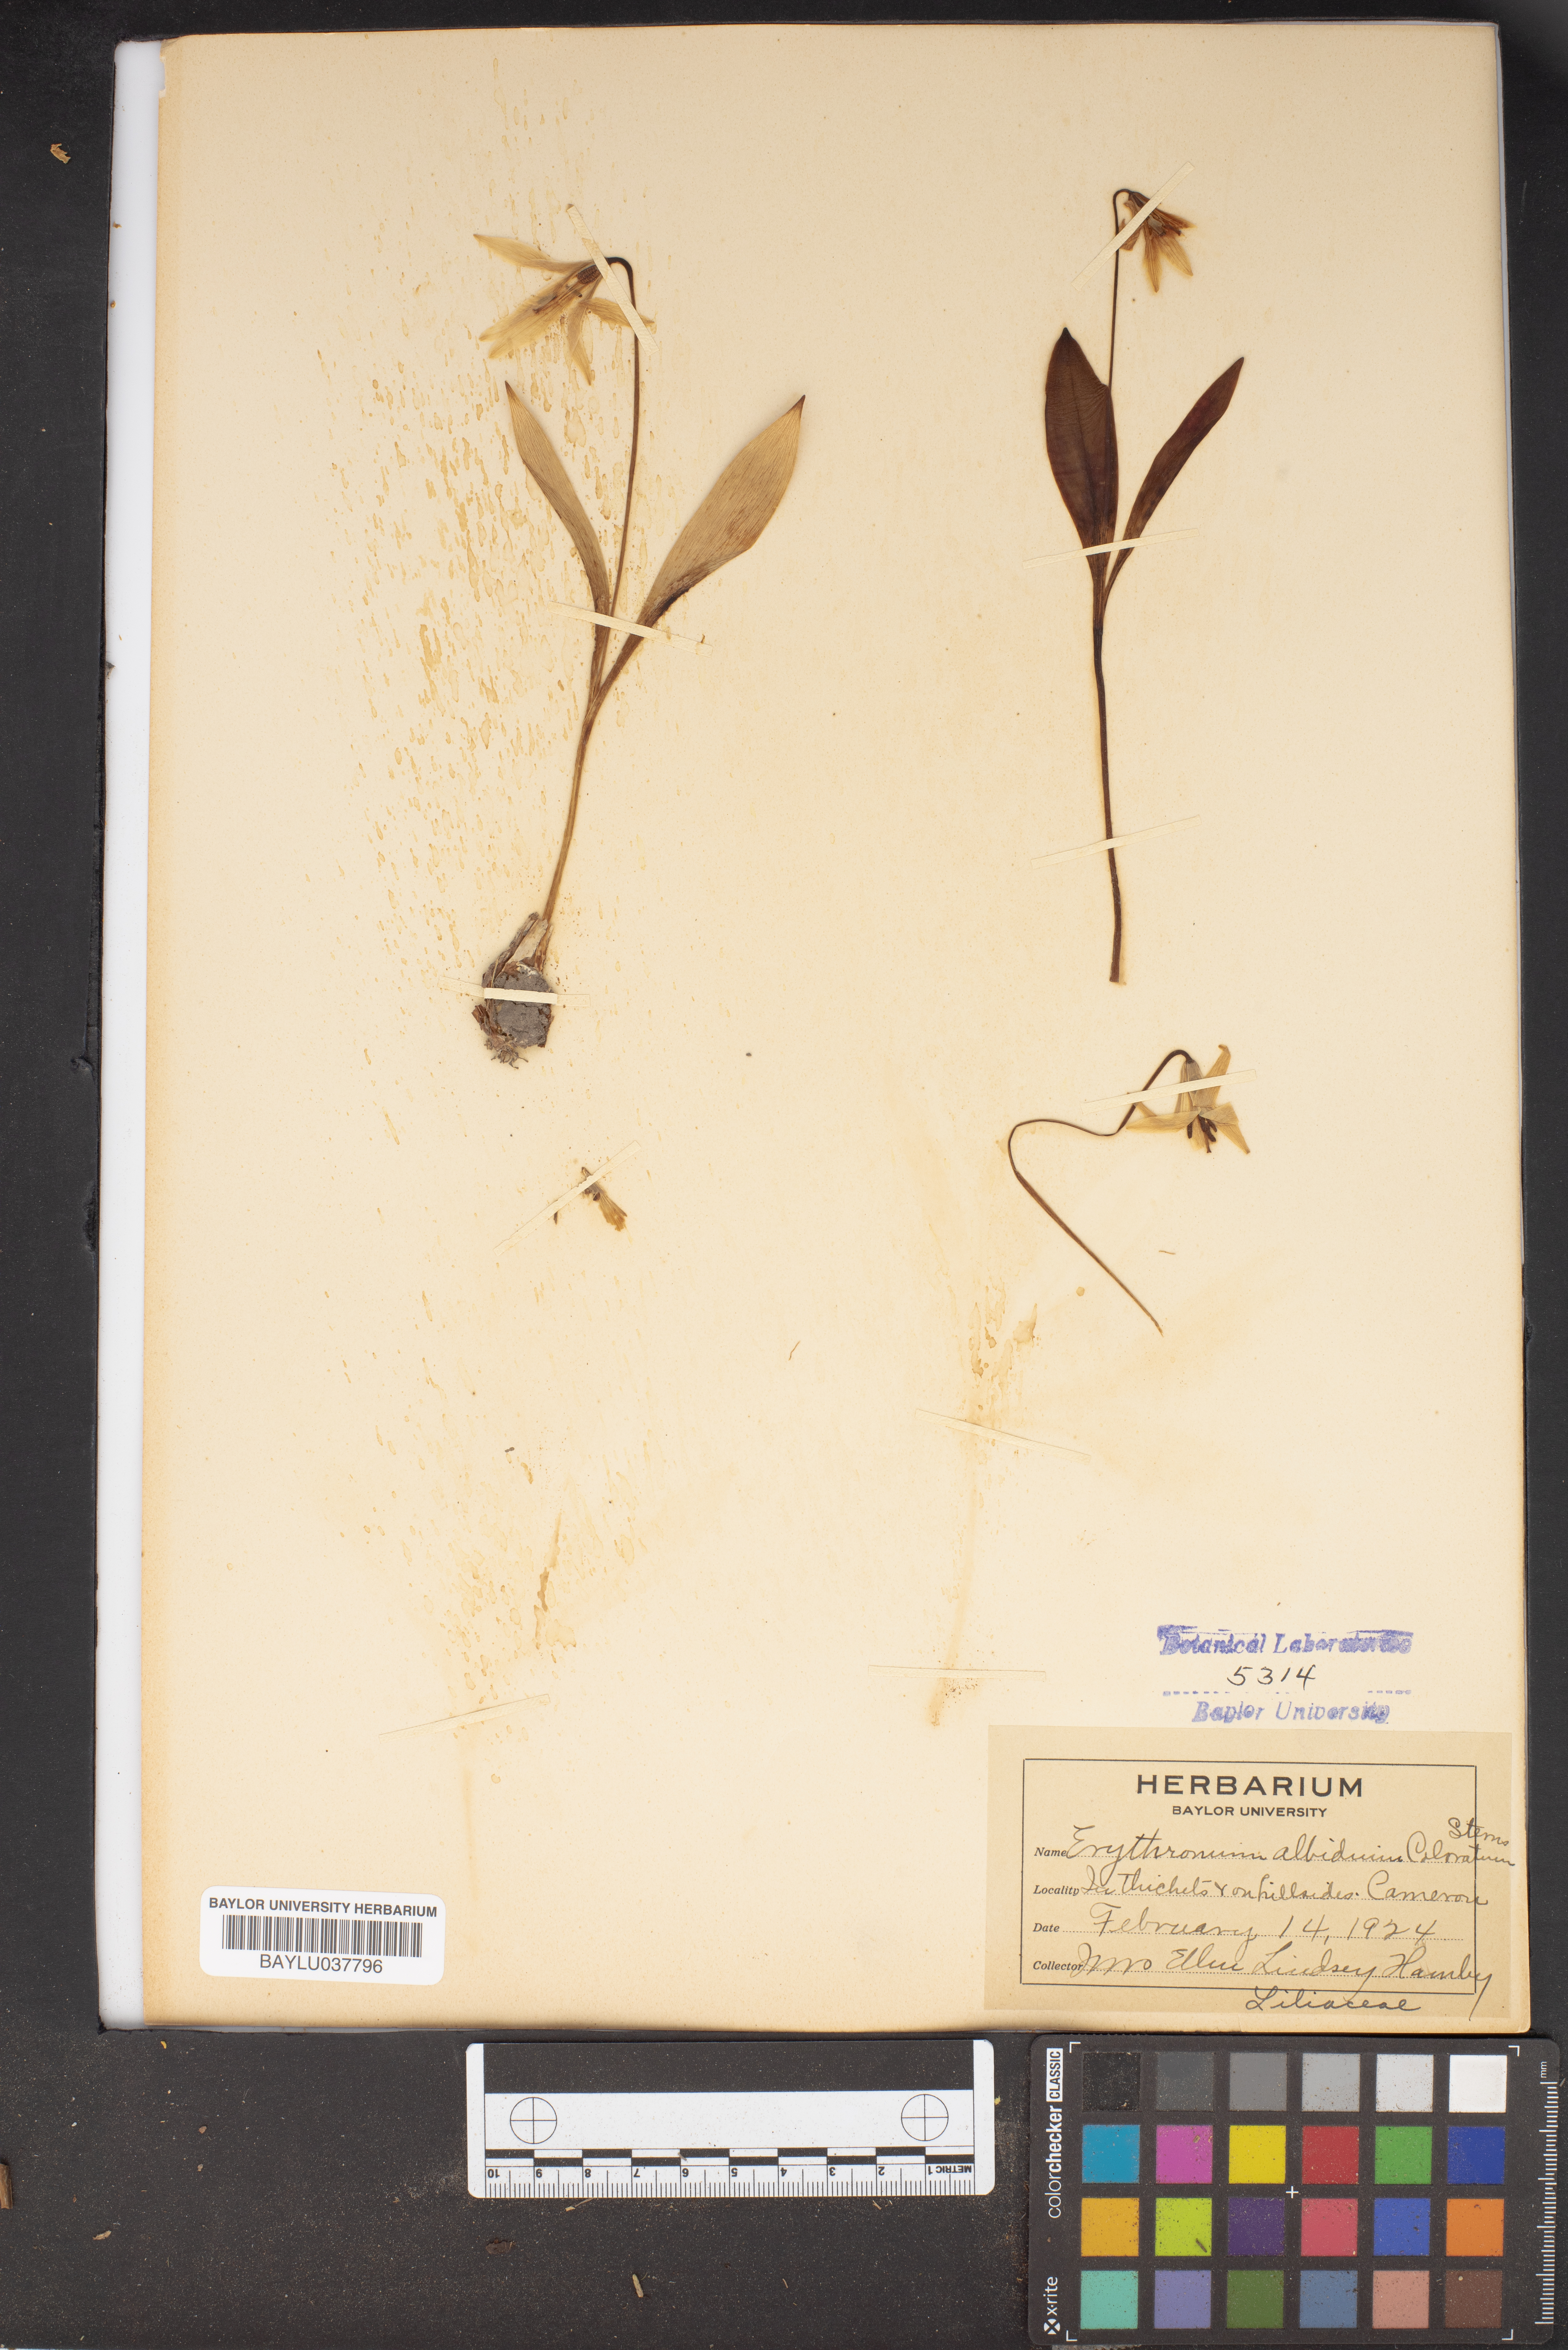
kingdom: Plantae
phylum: Tracheophyta
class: Liliopsida
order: Liliales
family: Liliaceae
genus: Erythronium
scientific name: Erythronium albidum
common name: White trout-lily
